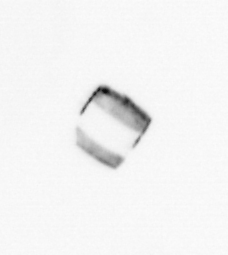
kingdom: Chromista
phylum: Ochrophyta
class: Bacillariophyceae
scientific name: Bacillariophyceae
